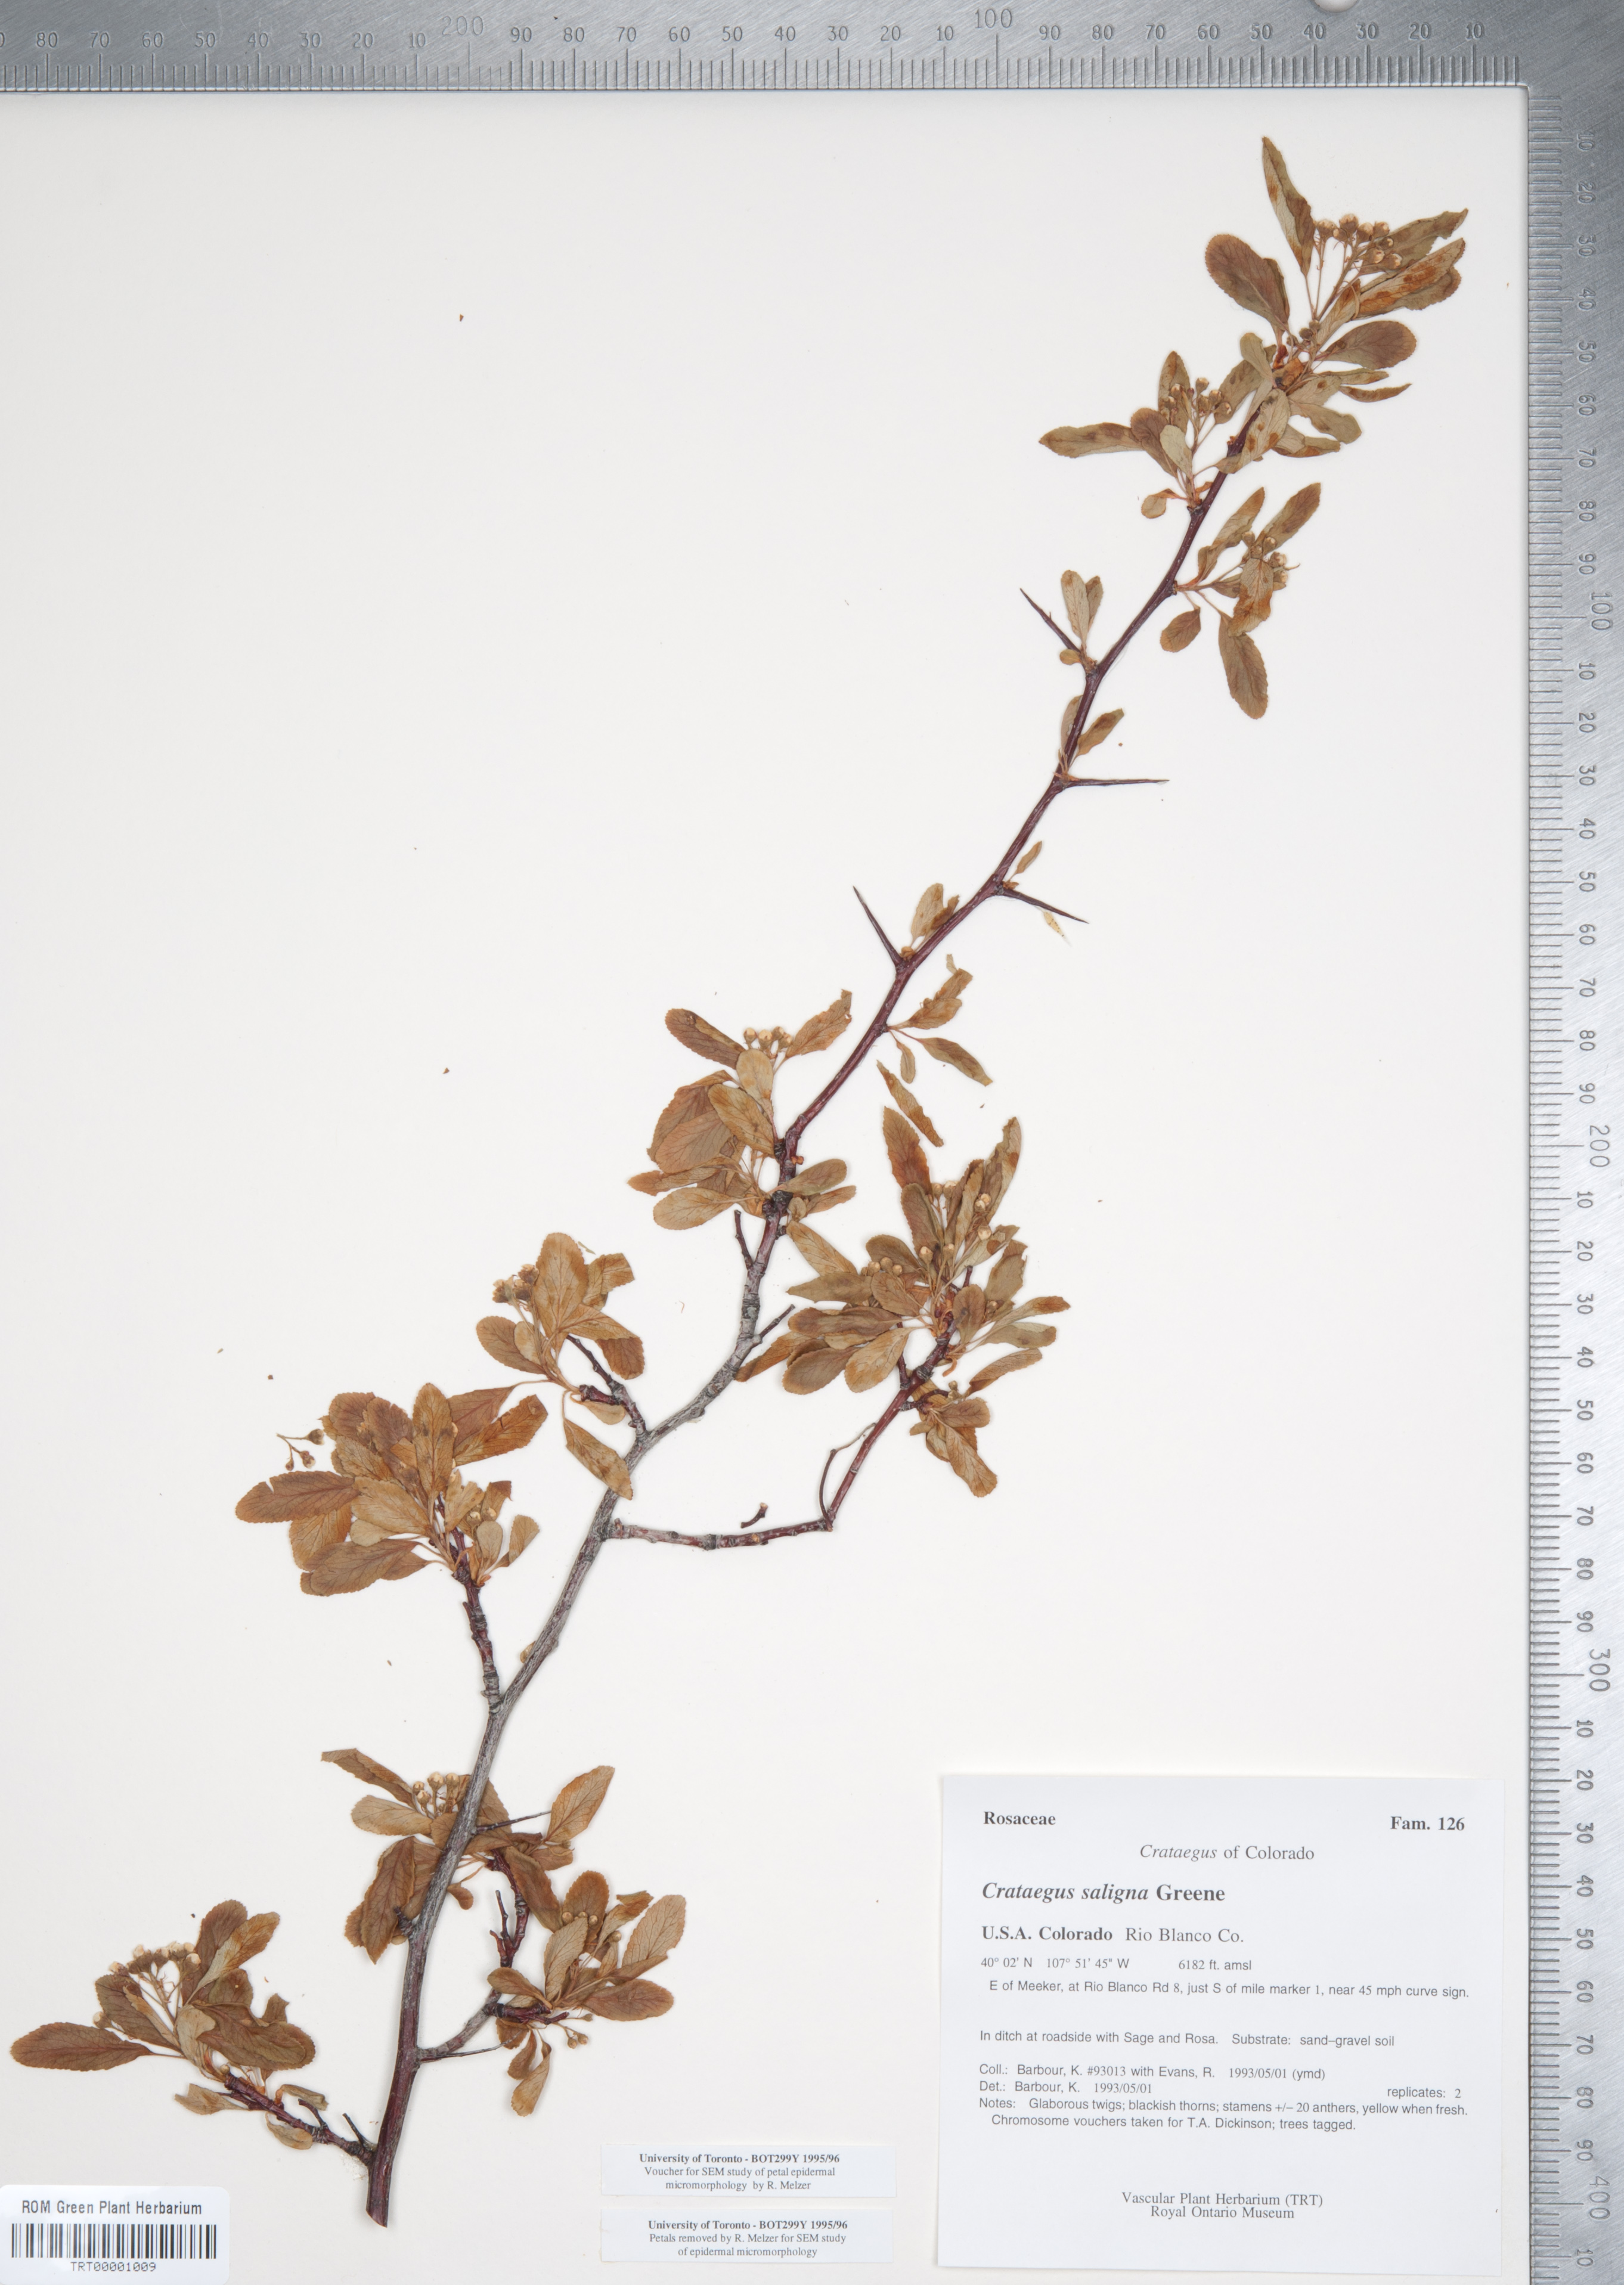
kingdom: Plantae
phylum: Tracheophyta
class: Magnoliopsida
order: Rosales
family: Rosaceae
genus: Crataegus
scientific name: Crataegus saligna
